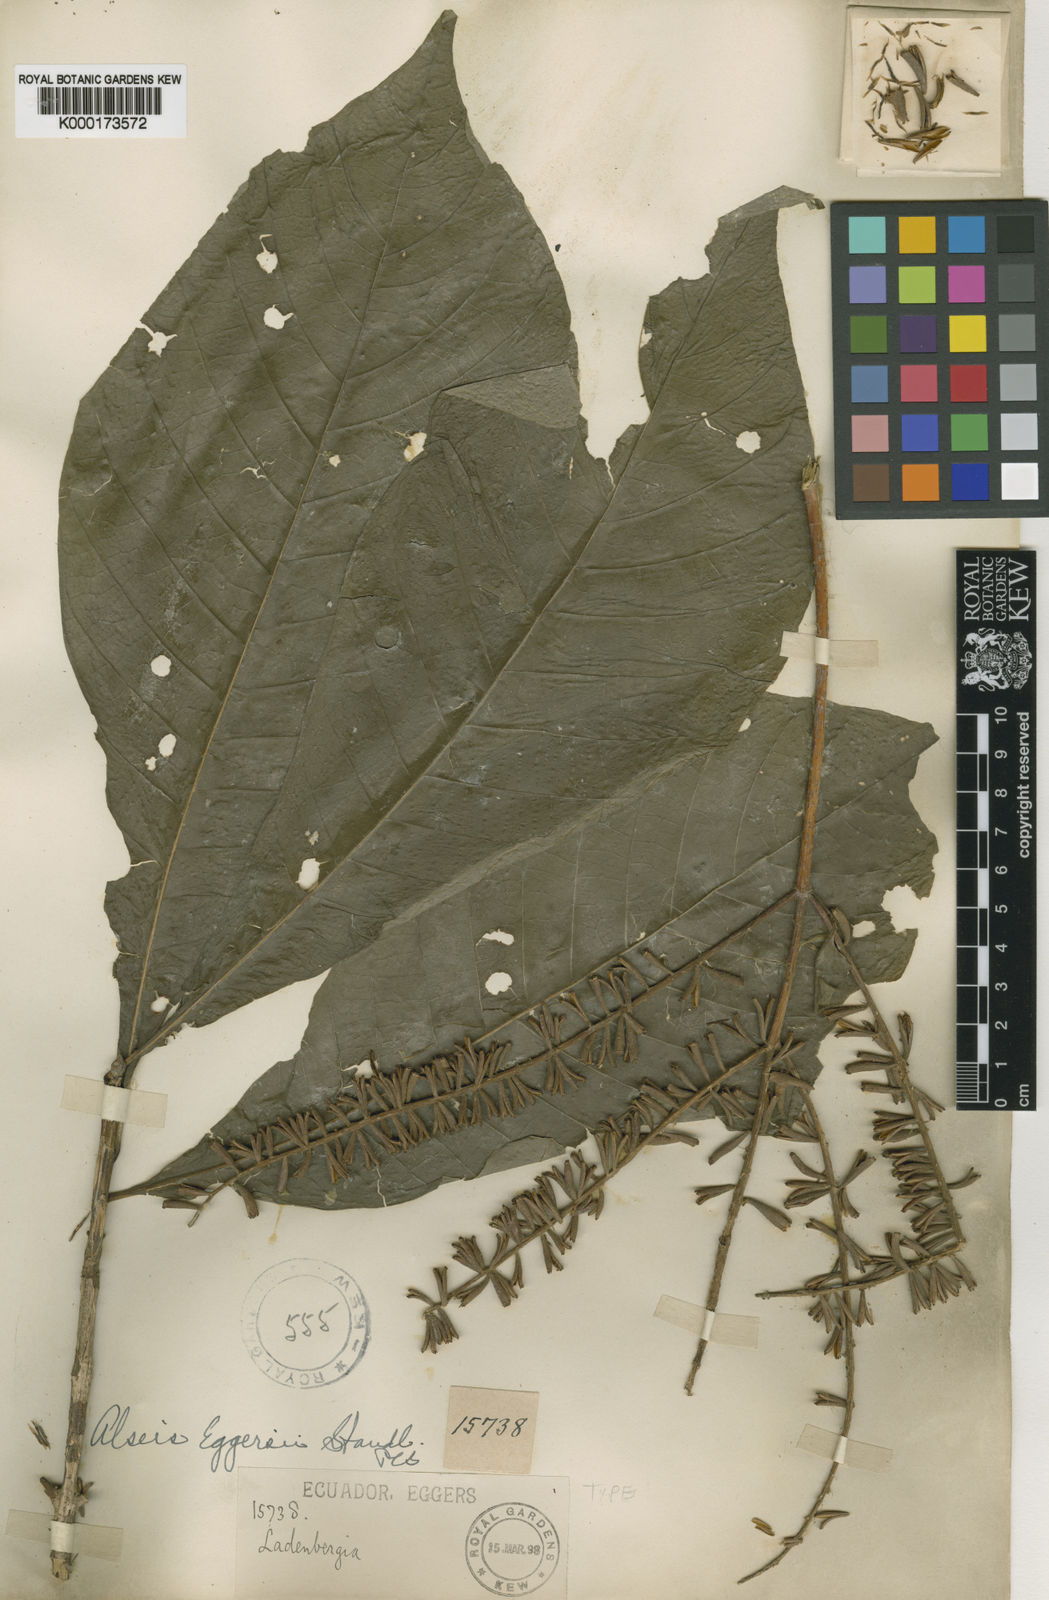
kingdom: Plantae
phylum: Tracheophyta
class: Magnoliopsida
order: Gentianales
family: Rubiaceae
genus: Alseis
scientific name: Alseis eggersii
